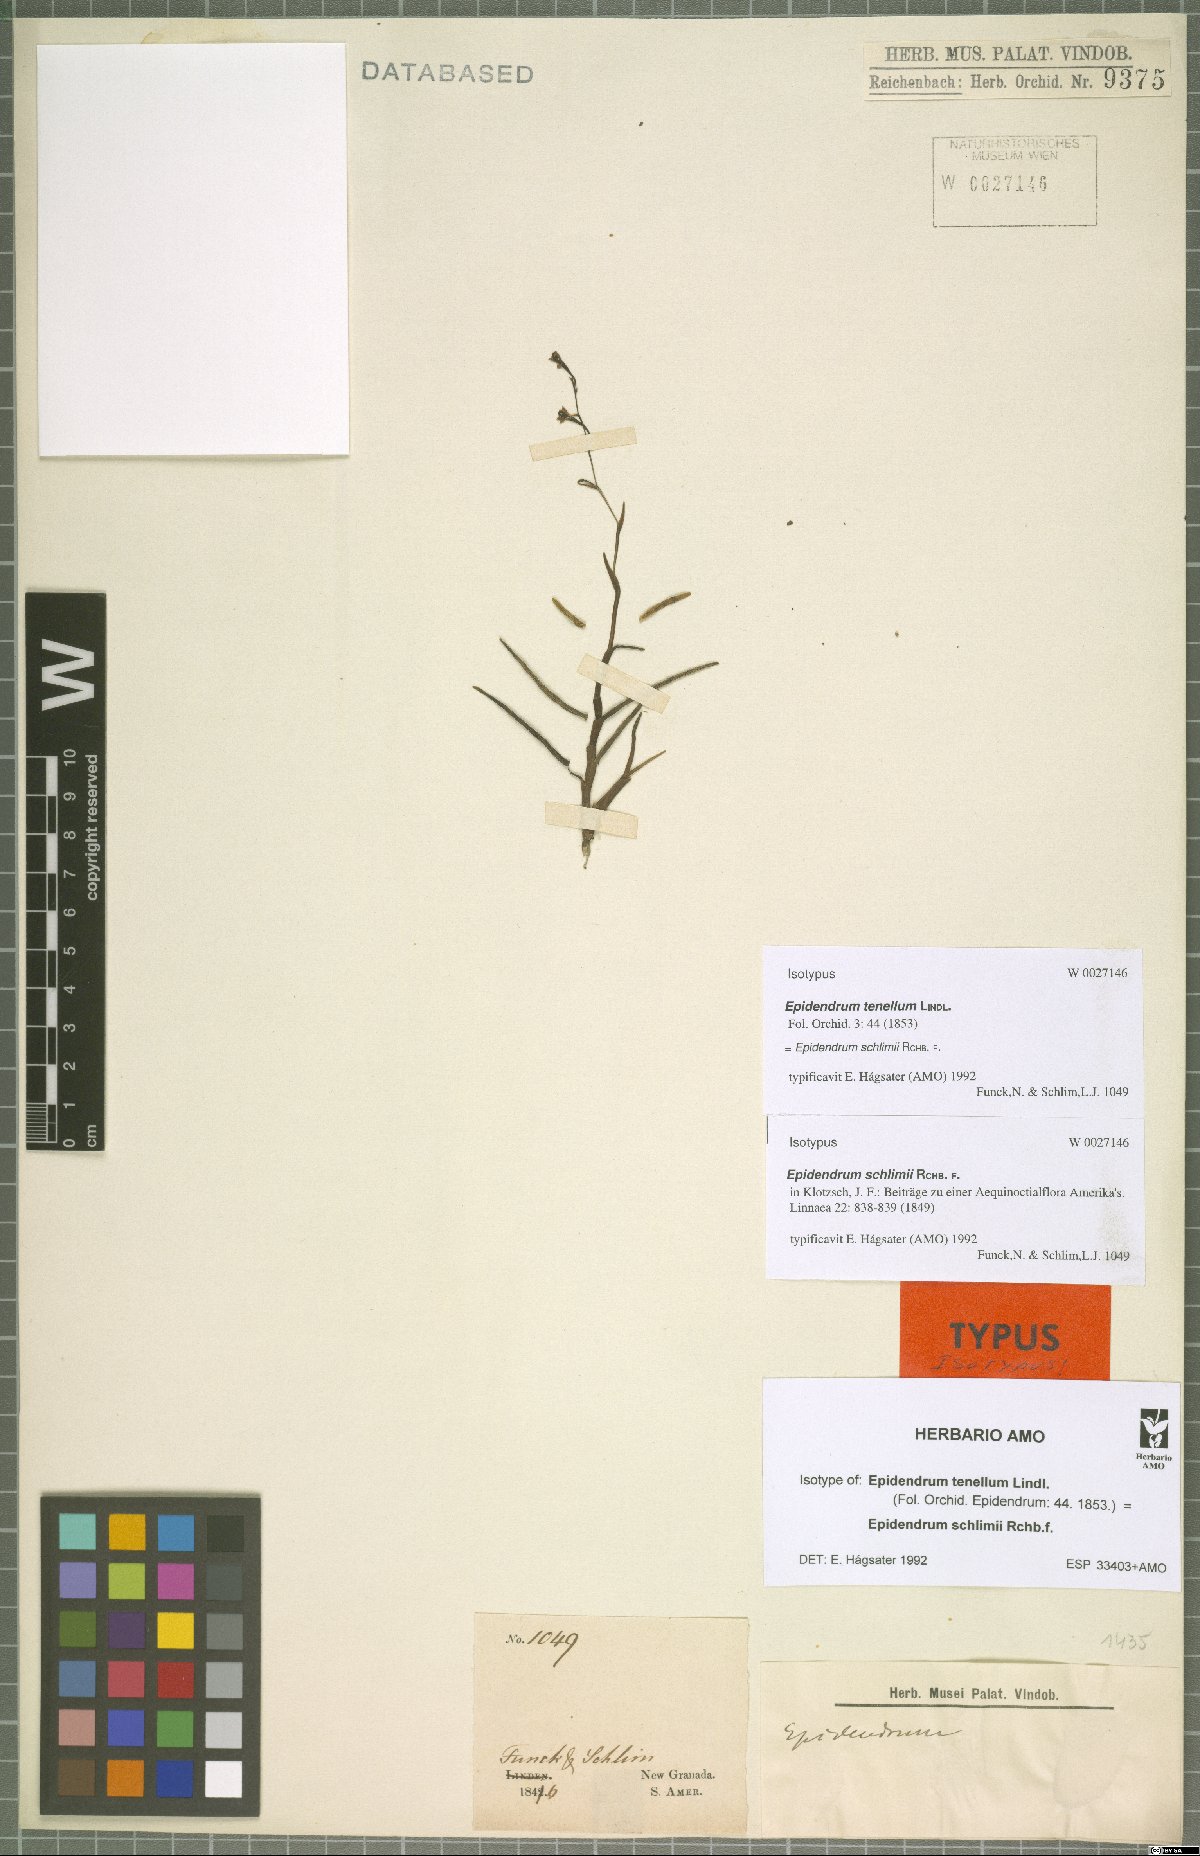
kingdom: Plantae
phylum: Tracheophyta
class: Liliopsida
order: Asparagales
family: Orchidaceae
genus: Epidendrum
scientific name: Epidendrum schlimii
